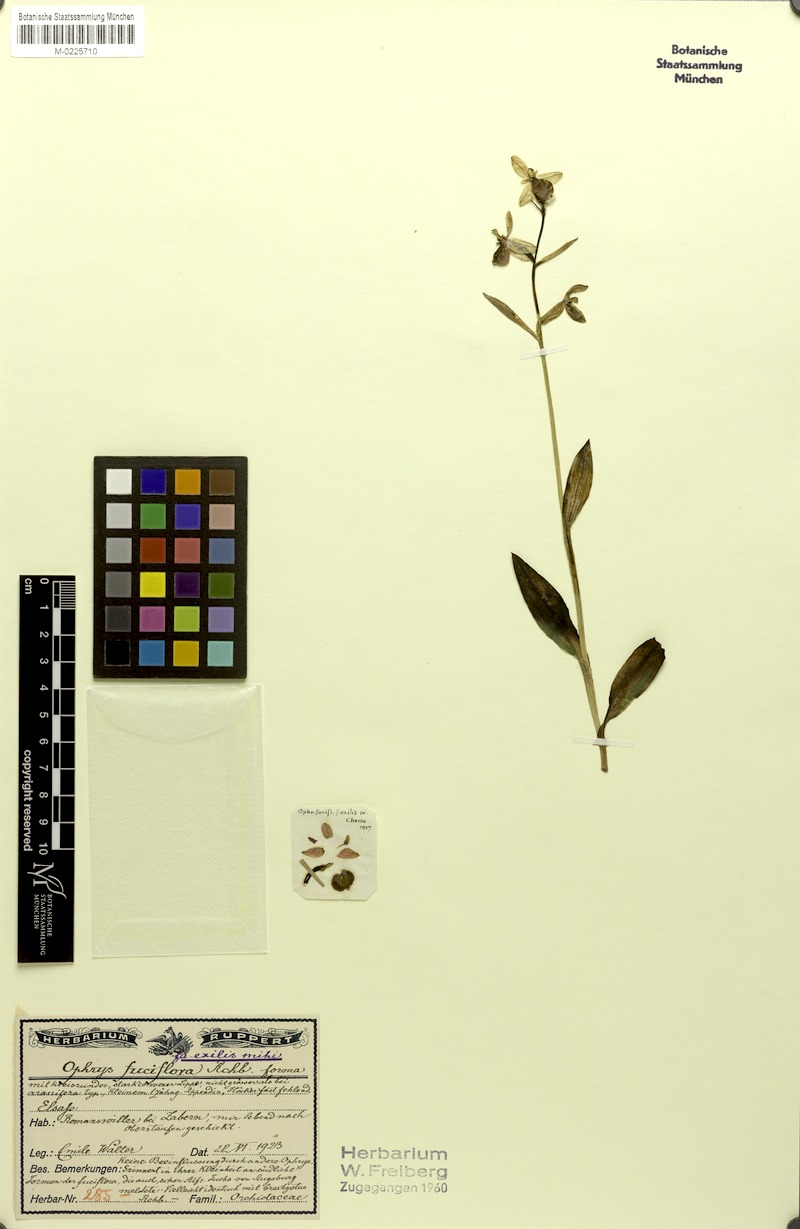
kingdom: Plantae
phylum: Tracheophyta
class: Liliopsida
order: Asparagales
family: Orchidaceae
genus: Ophrys
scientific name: Ophrys holosericea
